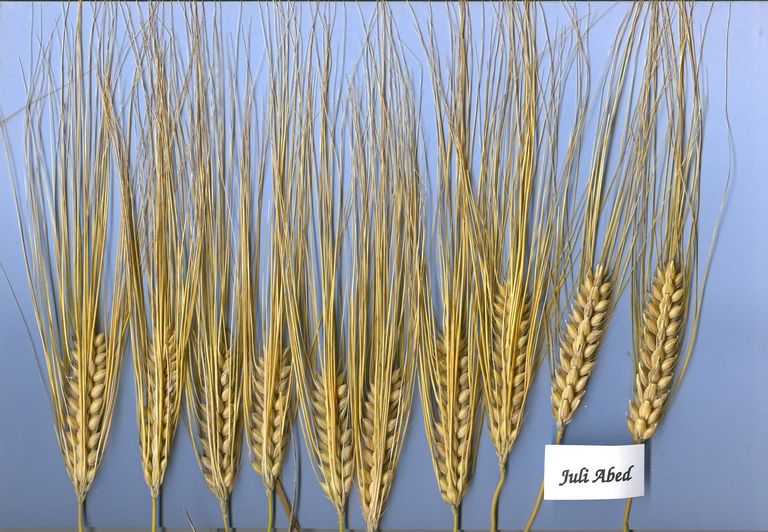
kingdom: Plantae
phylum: Tracheophyta
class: Liliopsida
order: Poales
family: Poaceae
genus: Hordeum
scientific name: Hordeum vulgare
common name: Common barley
